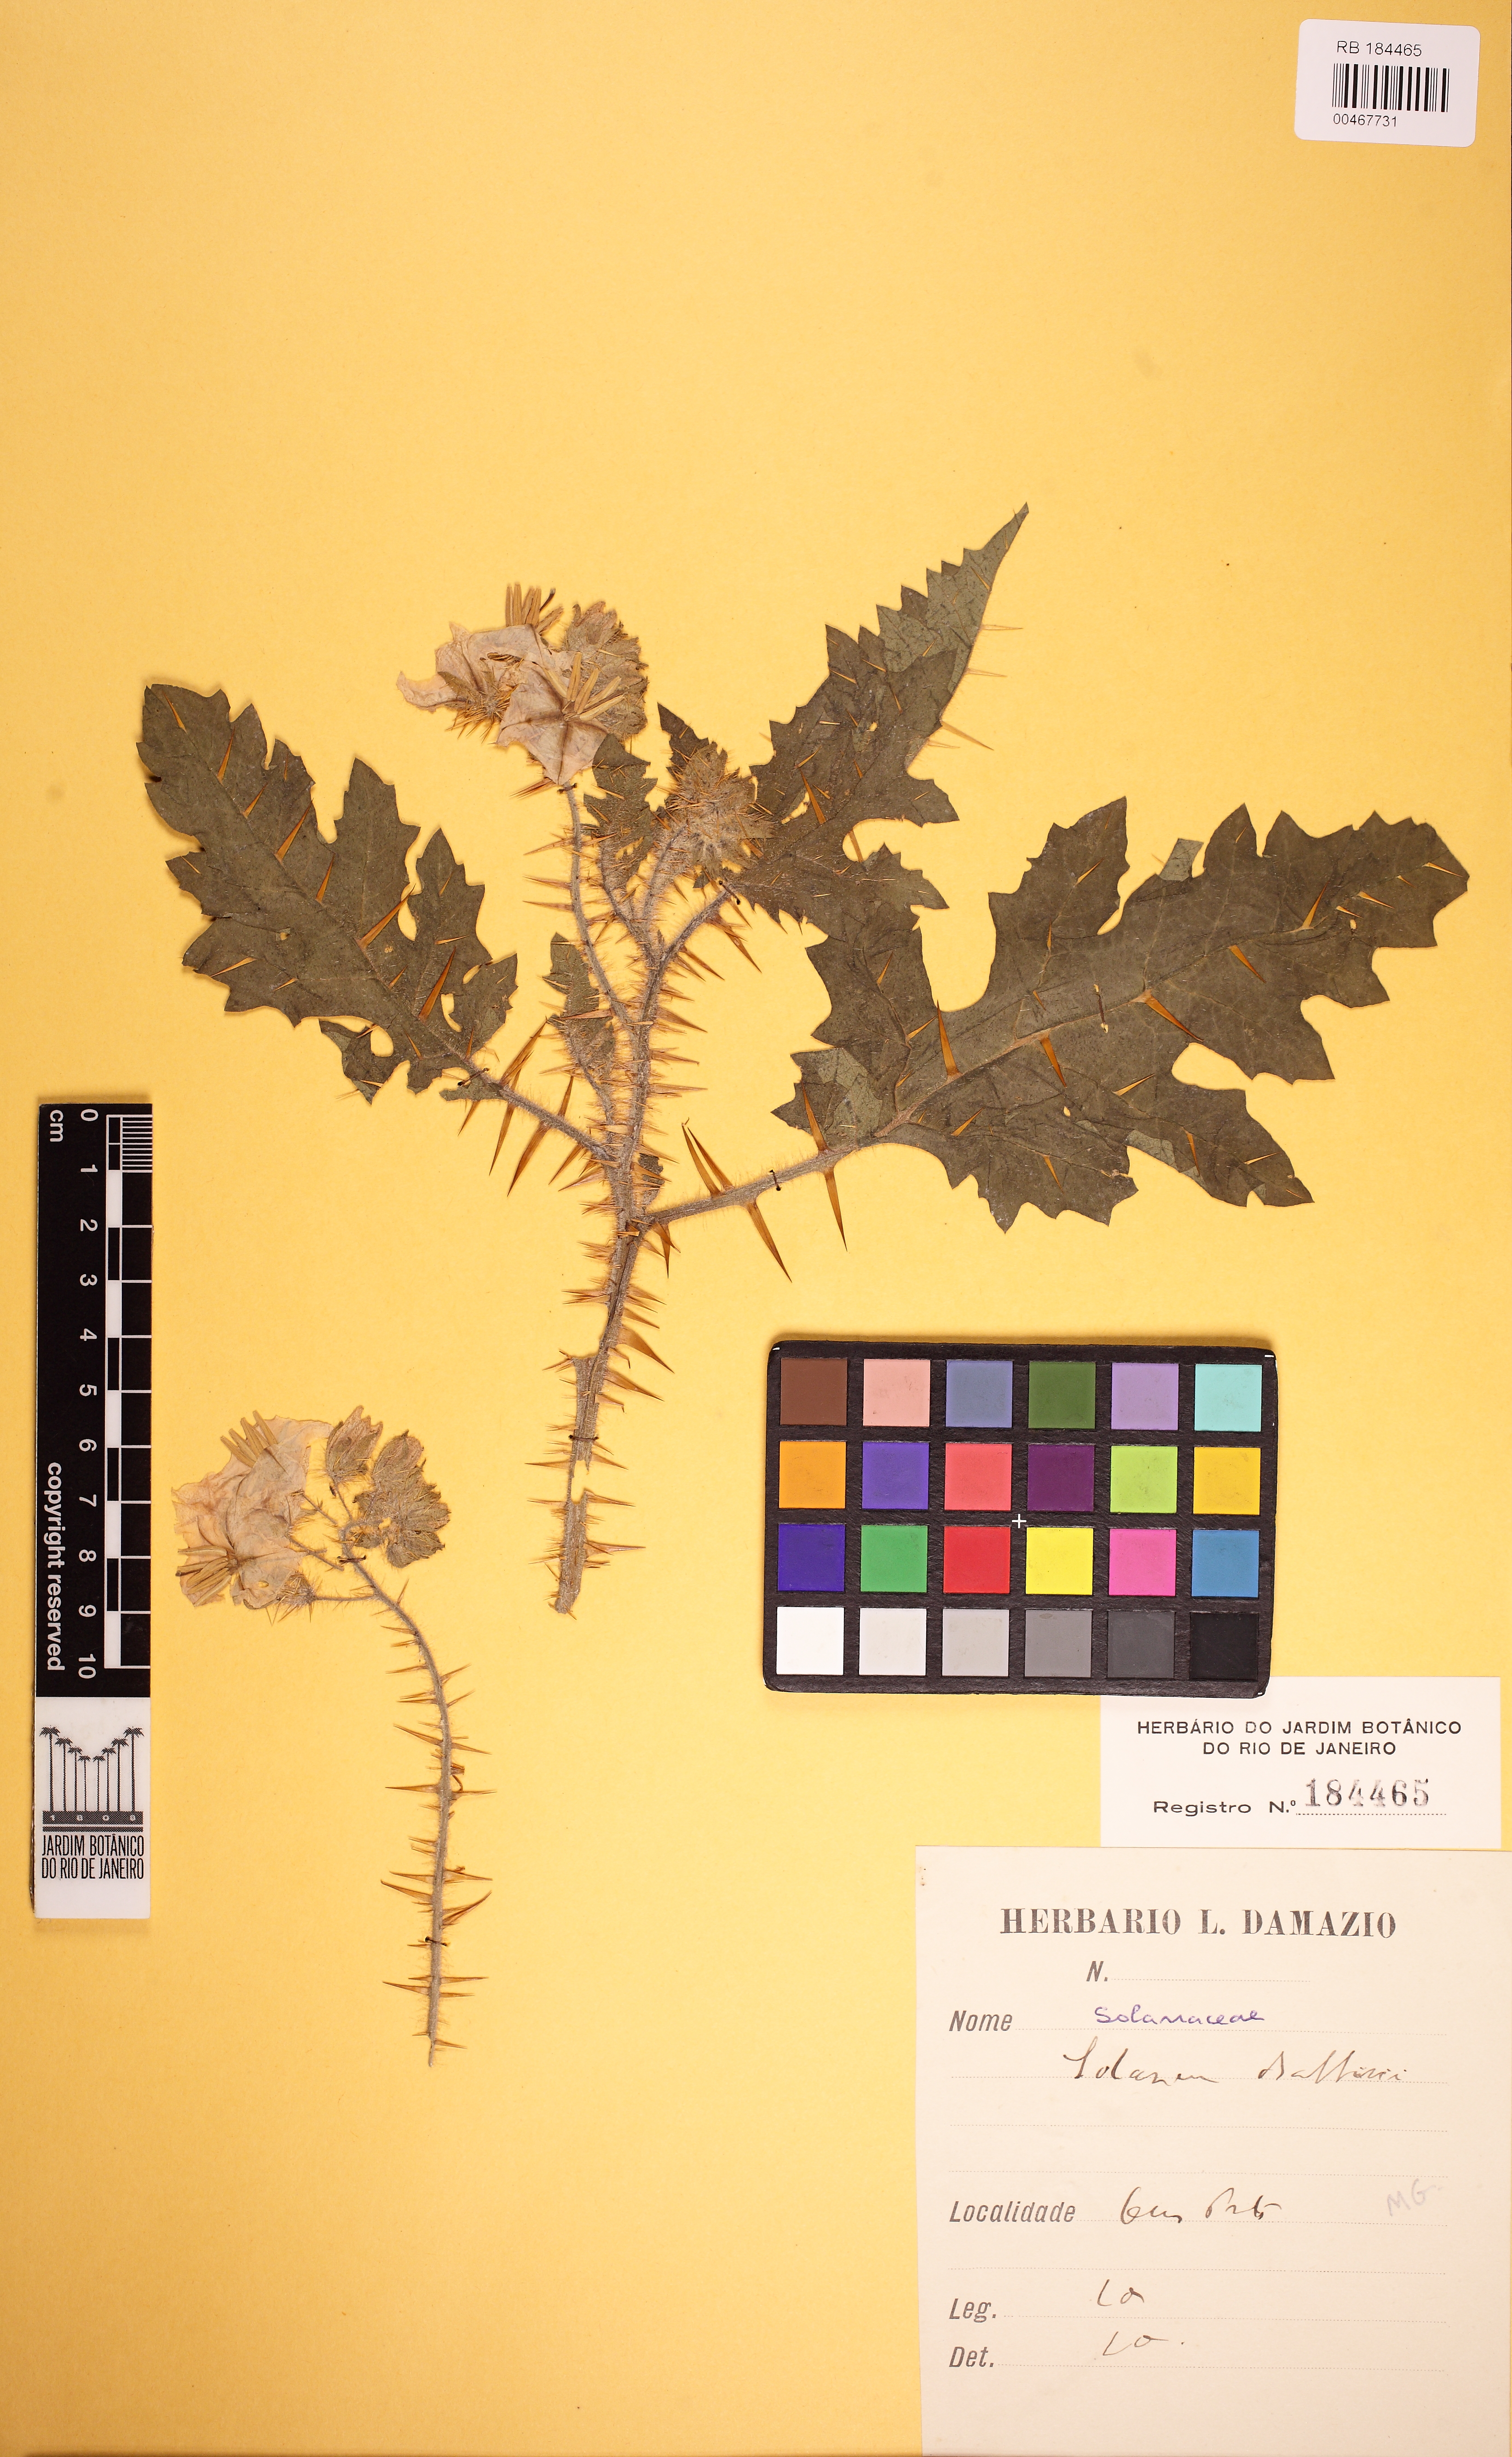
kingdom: Plantae
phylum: Tracheophyta
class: Magnoliopsida
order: Solanales
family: Solanaceae
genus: Solanum
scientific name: Solanum sisymbriifolium
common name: Red buffalo-bur
